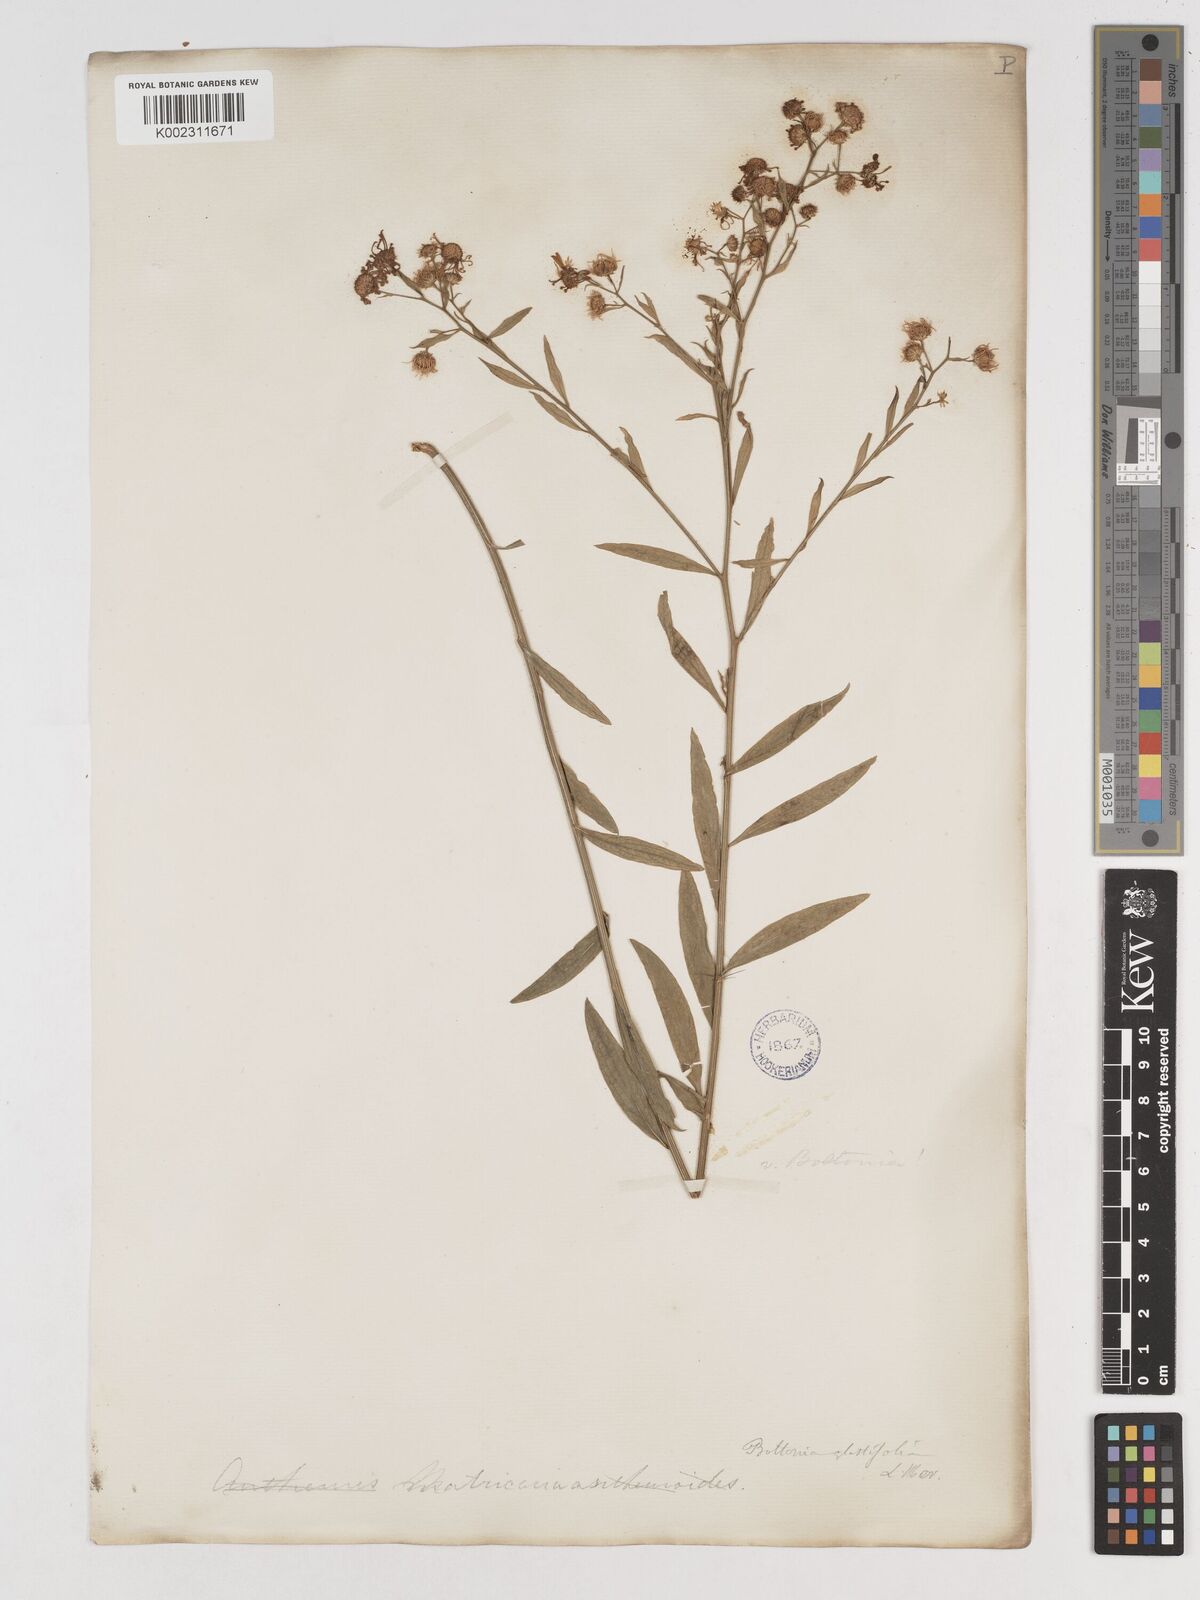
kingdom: Plantae
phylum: Tracheophyta
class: Magnoliopsida
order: Asterales
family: Asteraceae
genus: Boltonia
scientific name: Boltonia glastifolia
